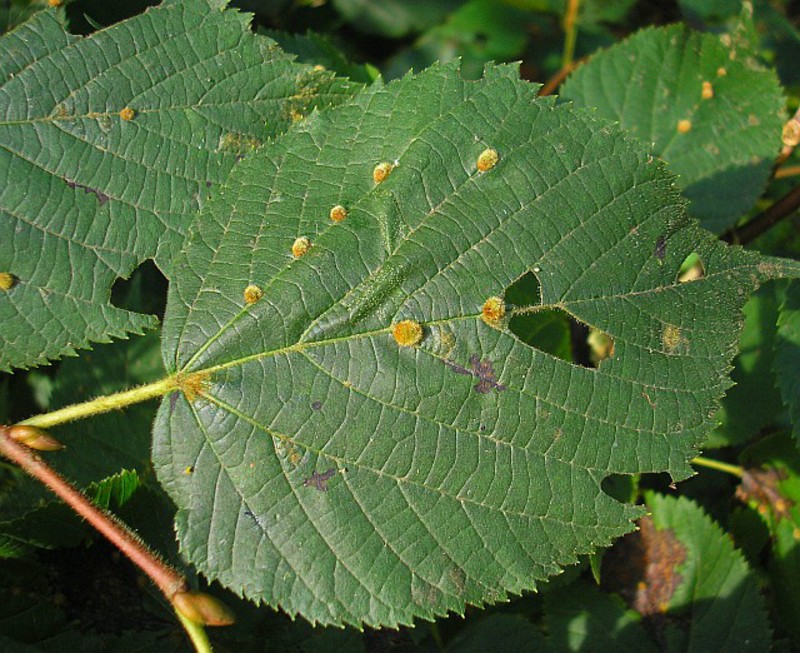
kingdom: Animalia
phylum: Arthropoda
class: Arachnida
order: Trombidiformes
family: Eriophyidae
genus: Eriophyes
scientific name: Eriophyes exilis
